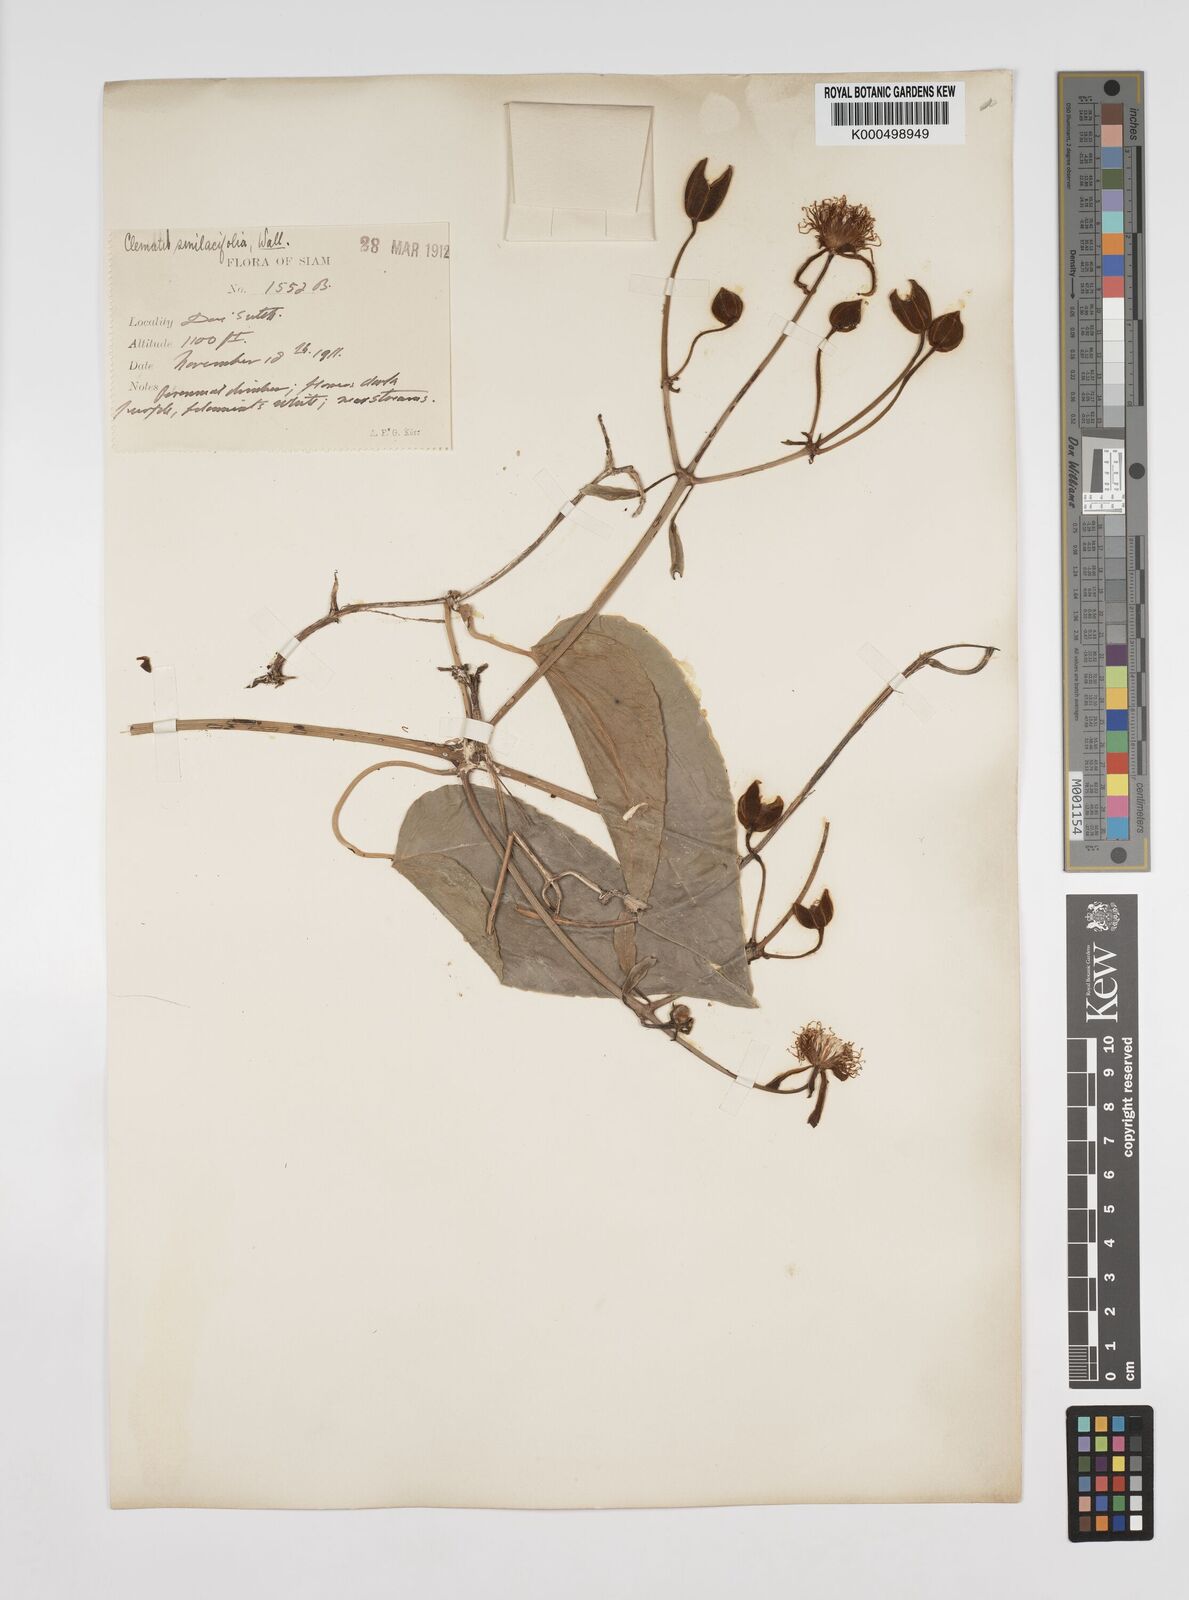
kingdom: Plantae
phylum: Tracheophyta
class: Magnoliopsida
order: Ranunculales
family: Ranunculaceae
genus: Clematis
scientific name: Clematis smilacifolia
